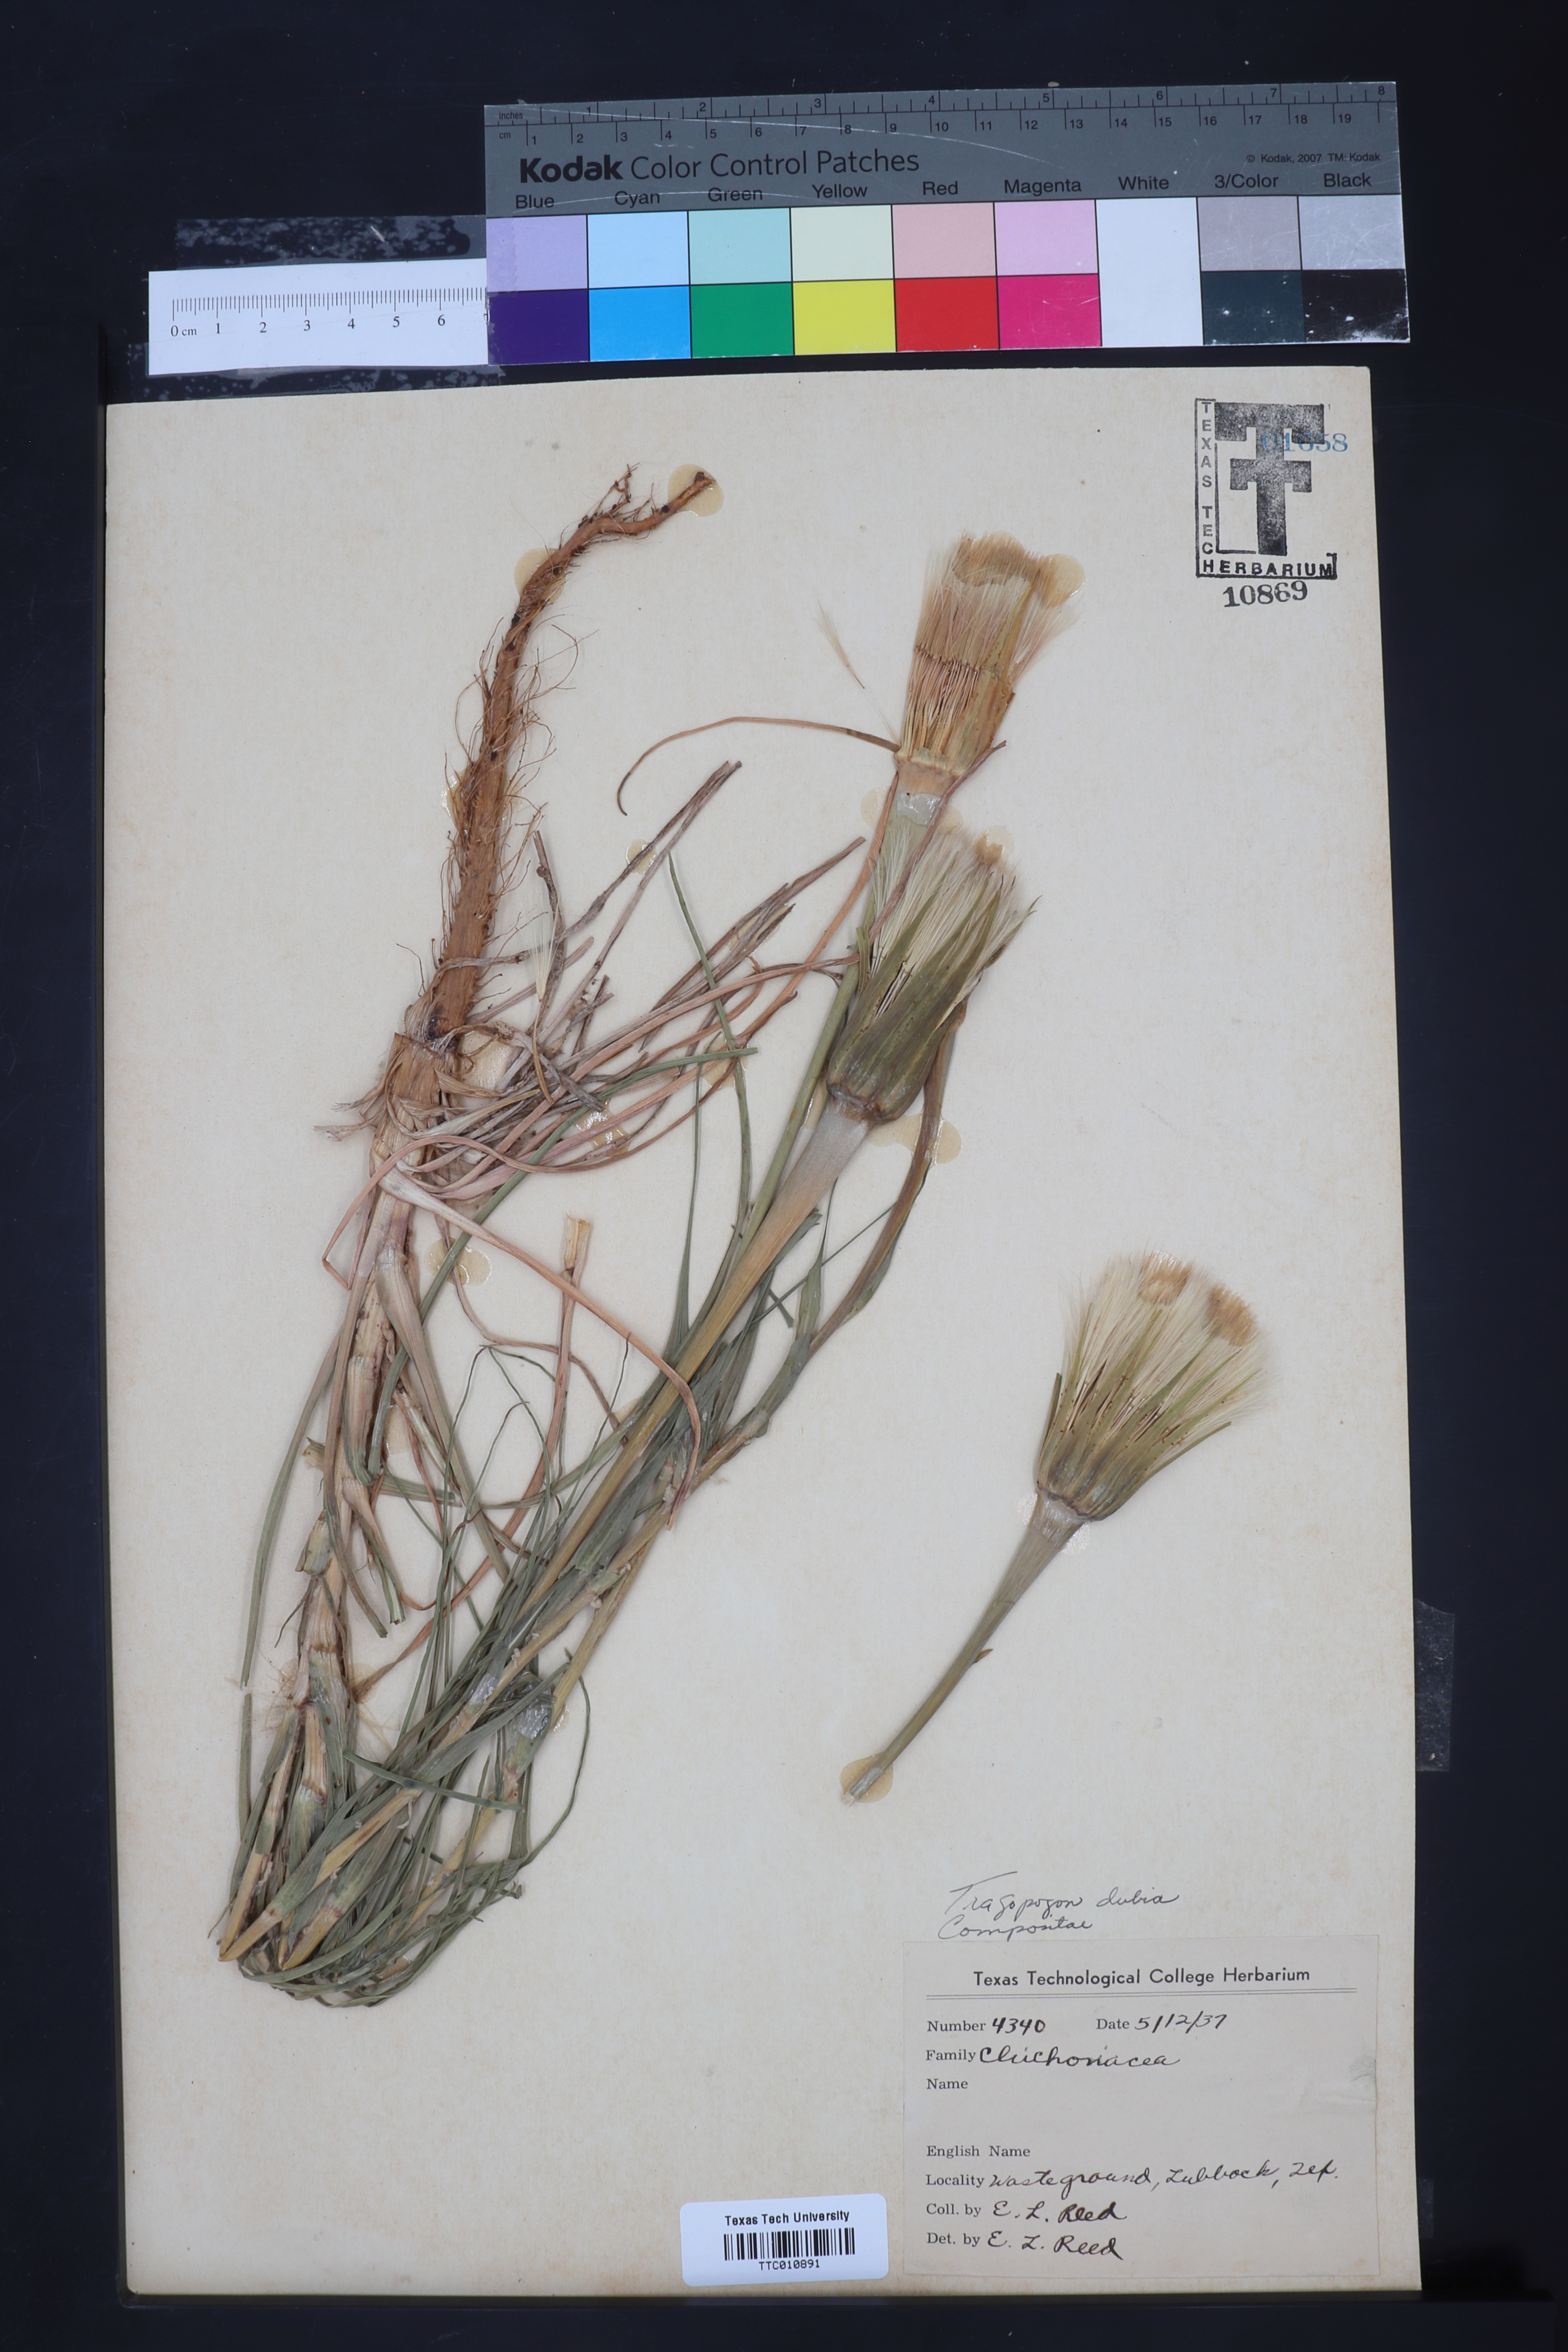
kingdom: Plantae
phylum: Tracheophyta
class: Magnoliopsida
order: Asterales
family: Asteraceae
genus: Tragopogon
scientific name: Tragopogon dubius
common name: Yellow salsify
